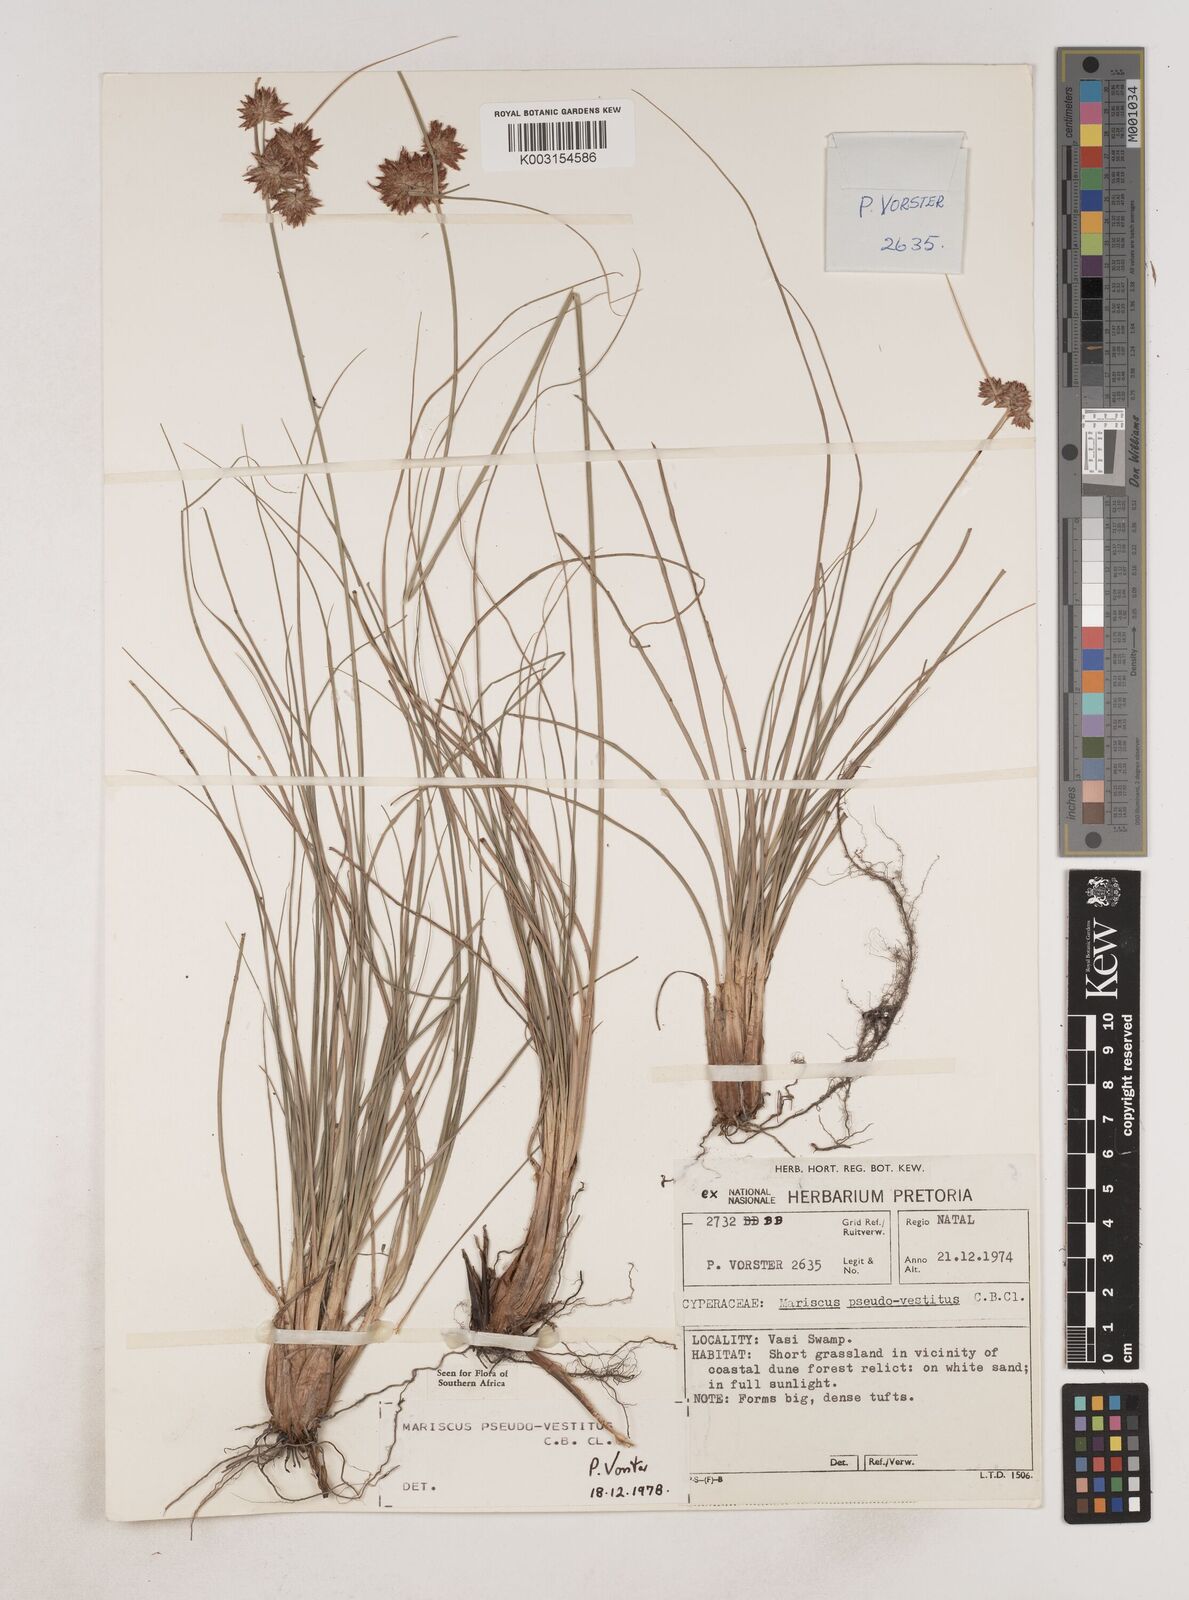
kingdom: Plantae
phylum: Tracheophyta
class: Liliopsida
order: Poales
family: Cyperaceae
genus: Cyperus
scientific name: Cyperus pseudovestitus
